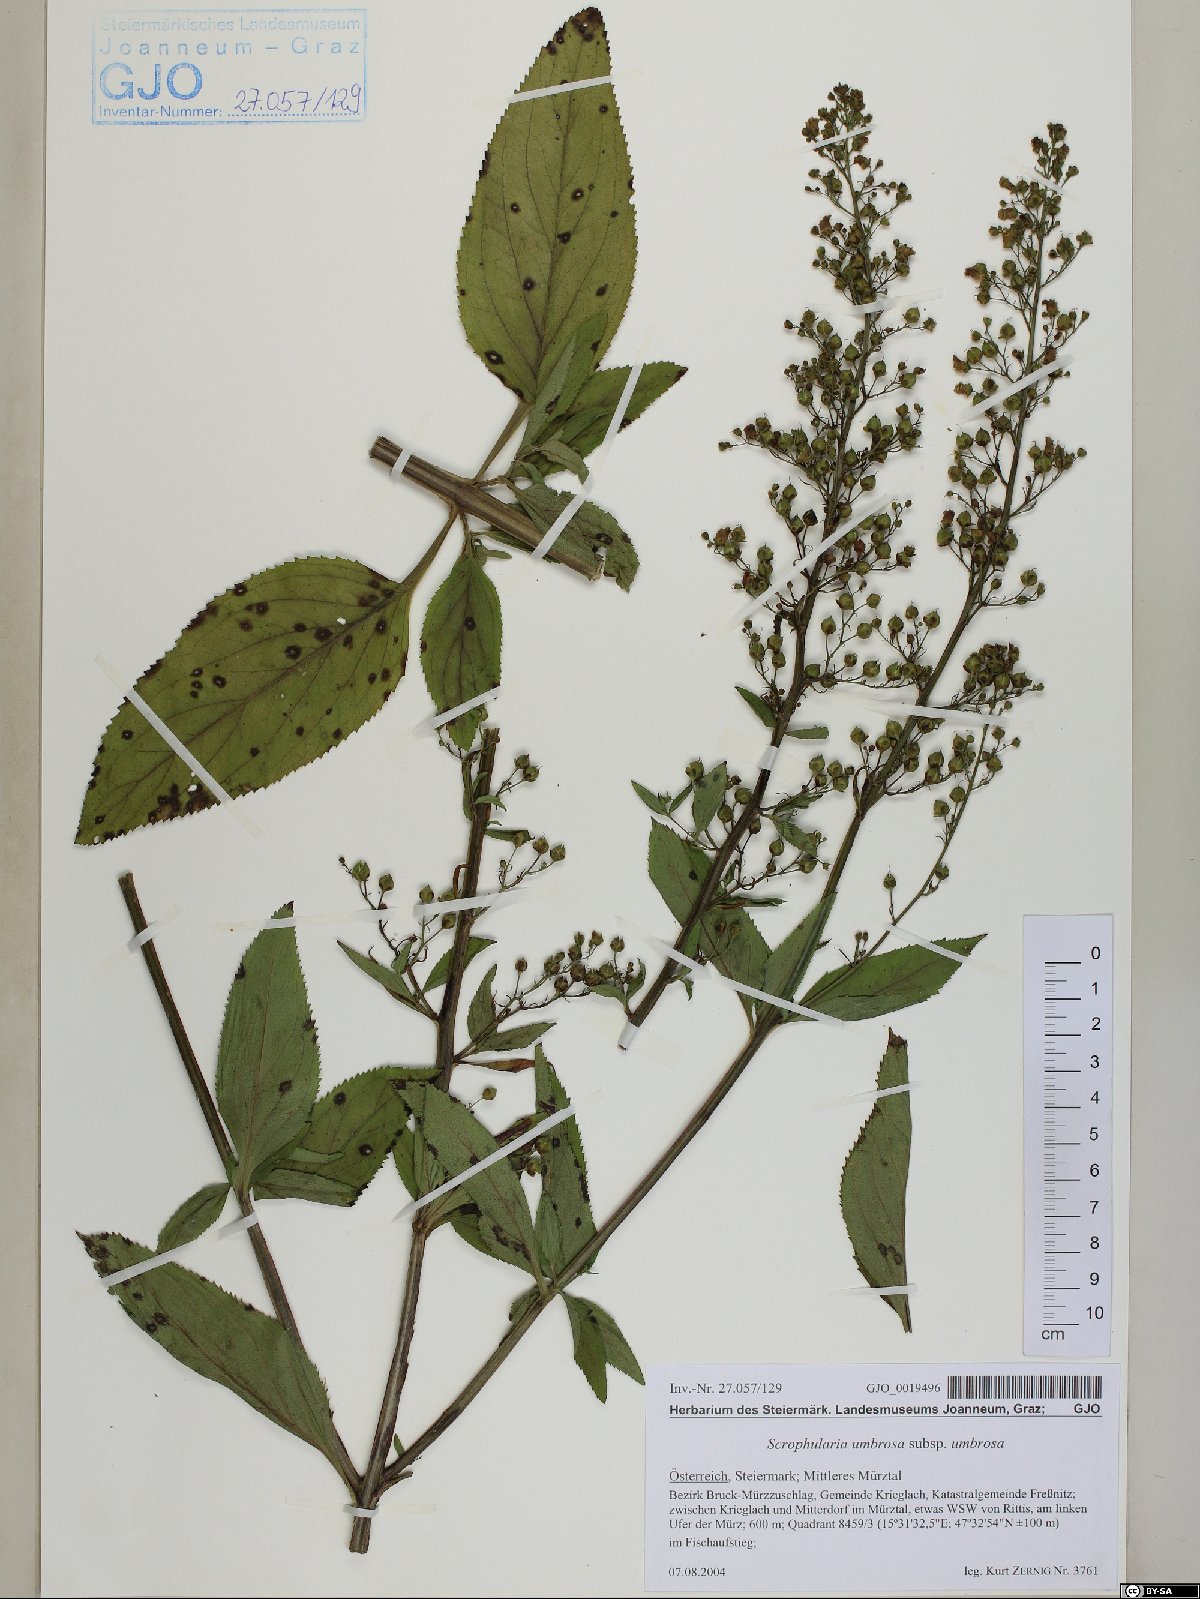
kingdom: Plantae
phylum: Tracheophyta
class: Magnoliopsida
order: Lamiales
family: Scrophulariaceae
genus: Scrophularia
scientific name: Scrophularia umbrosa
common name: Green figwort
